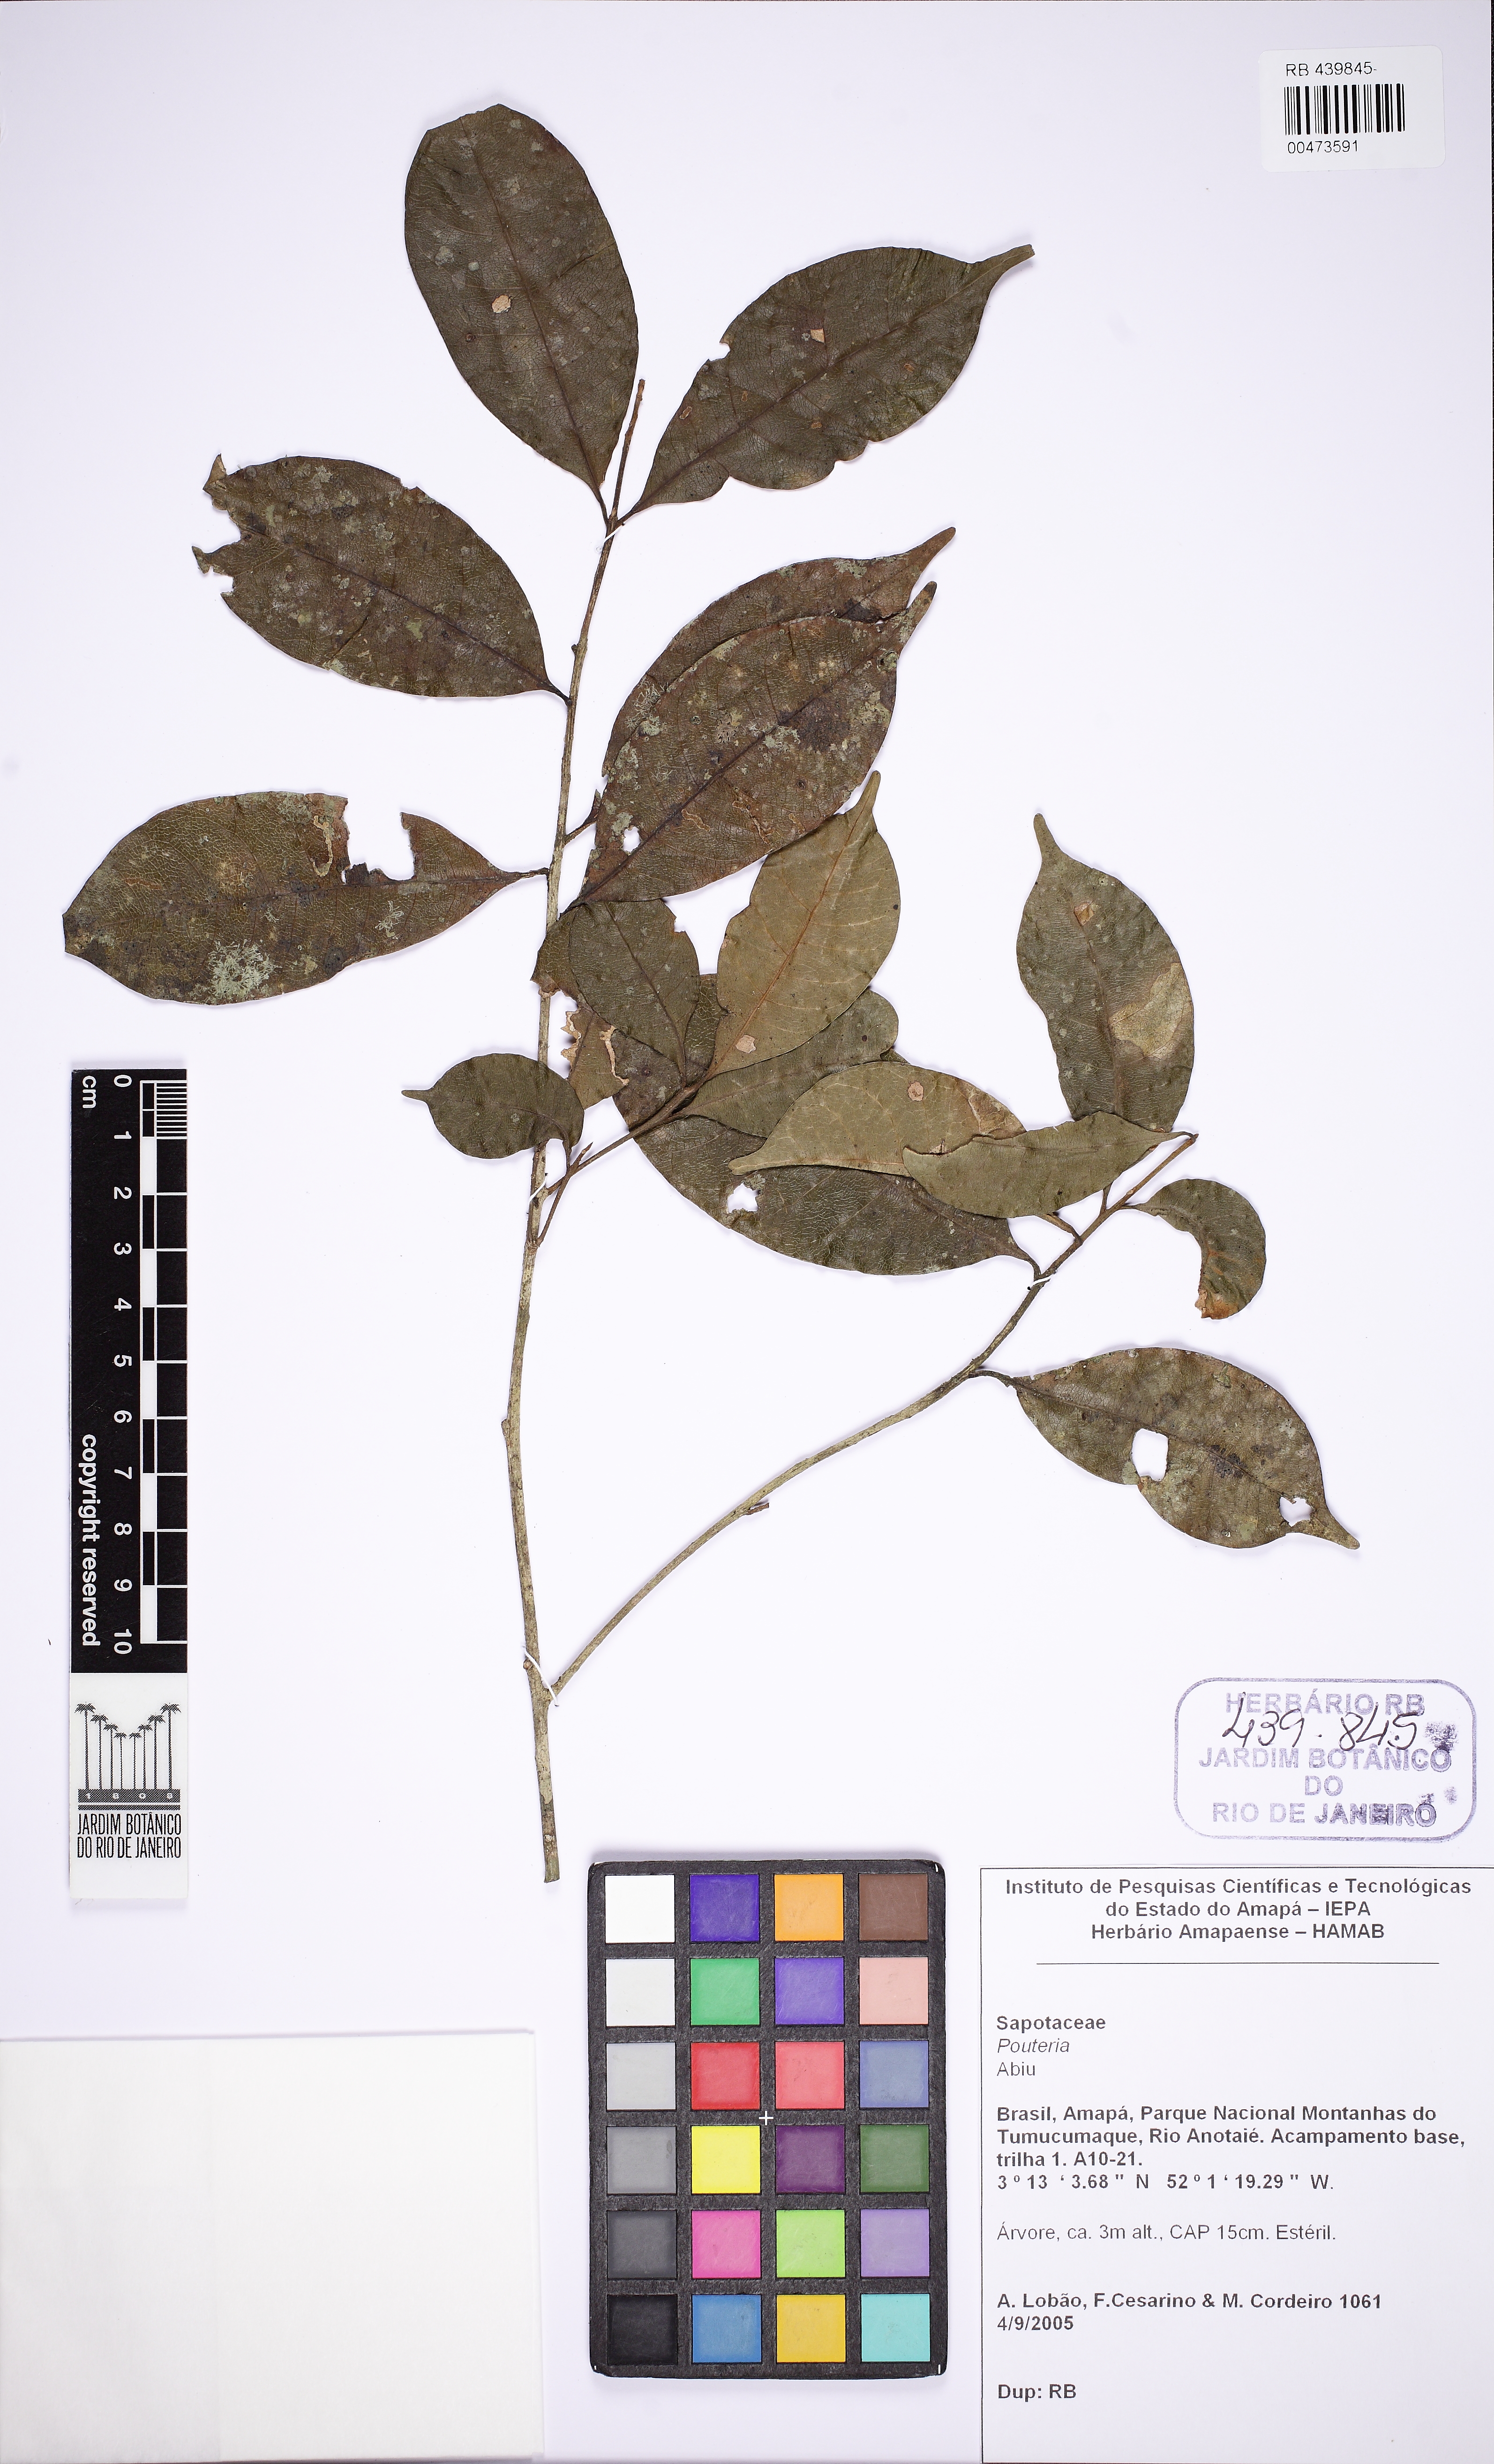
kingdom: Plantae
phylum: Tracheophyta
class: Magnoliopsida
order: Ericales
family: Sapotaceae
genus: Pouteria
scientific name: Pouteria peruviensis
